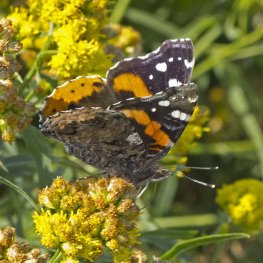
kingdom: Animalia
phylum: Arthropoda
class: Insecta
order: Lepidoptera
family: Nymphalidae
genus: Vanessa
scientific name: Vanessa atalanta
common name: Red Admiral
